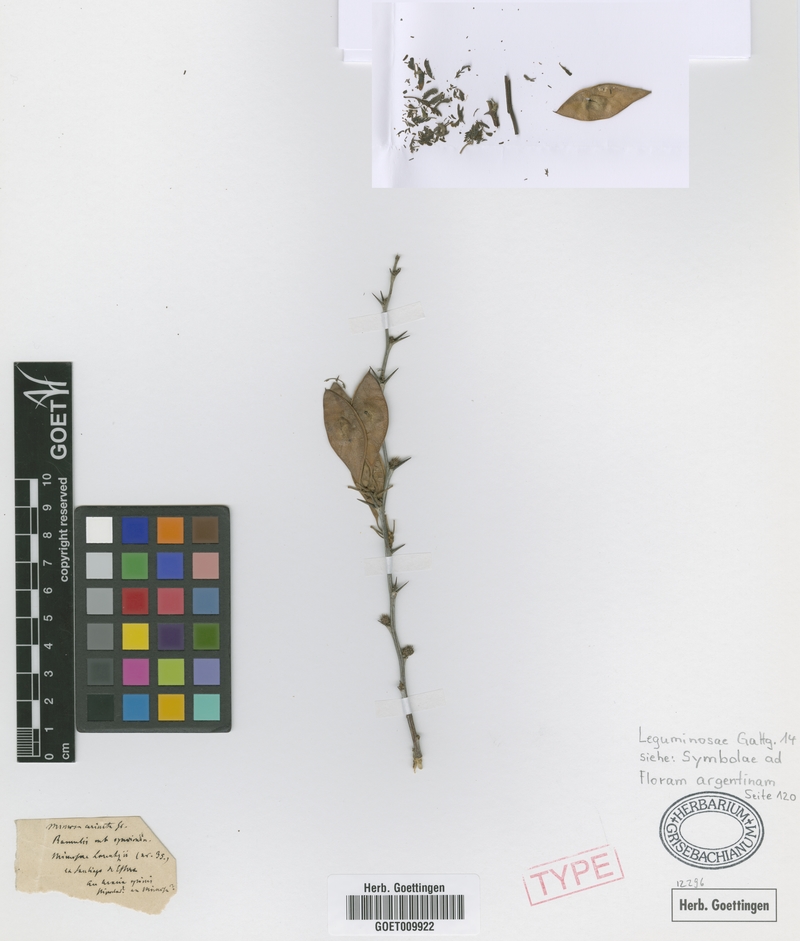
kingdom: Plantae
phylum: Tracheophyta
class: Magnoliopsida
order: Fabales
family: Fabaceae
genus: Mimozyganthus
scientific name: Mimozyganthus carinatus
